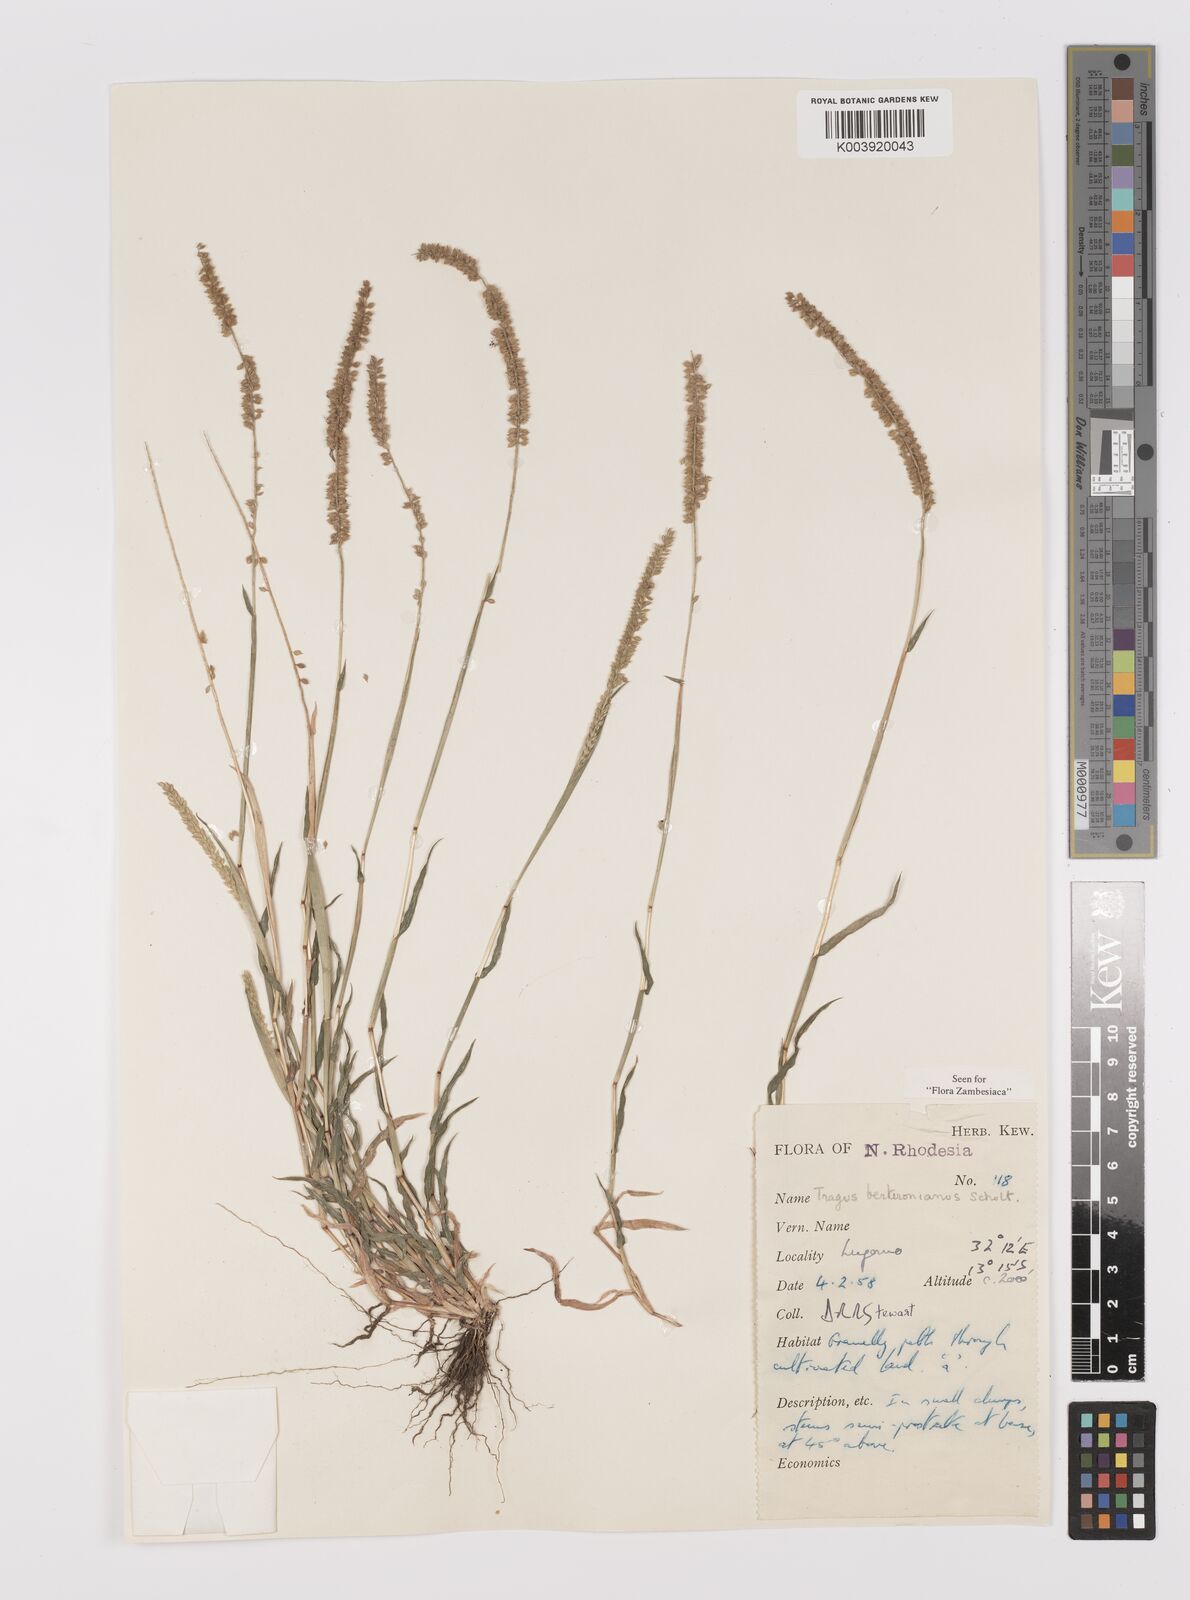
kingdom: Plantae
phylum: Tracheophyta
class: Liliopsida
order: Poales
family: Poaceae
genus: Tragus
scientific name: Tragus berteronianus
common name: African bur-grass
